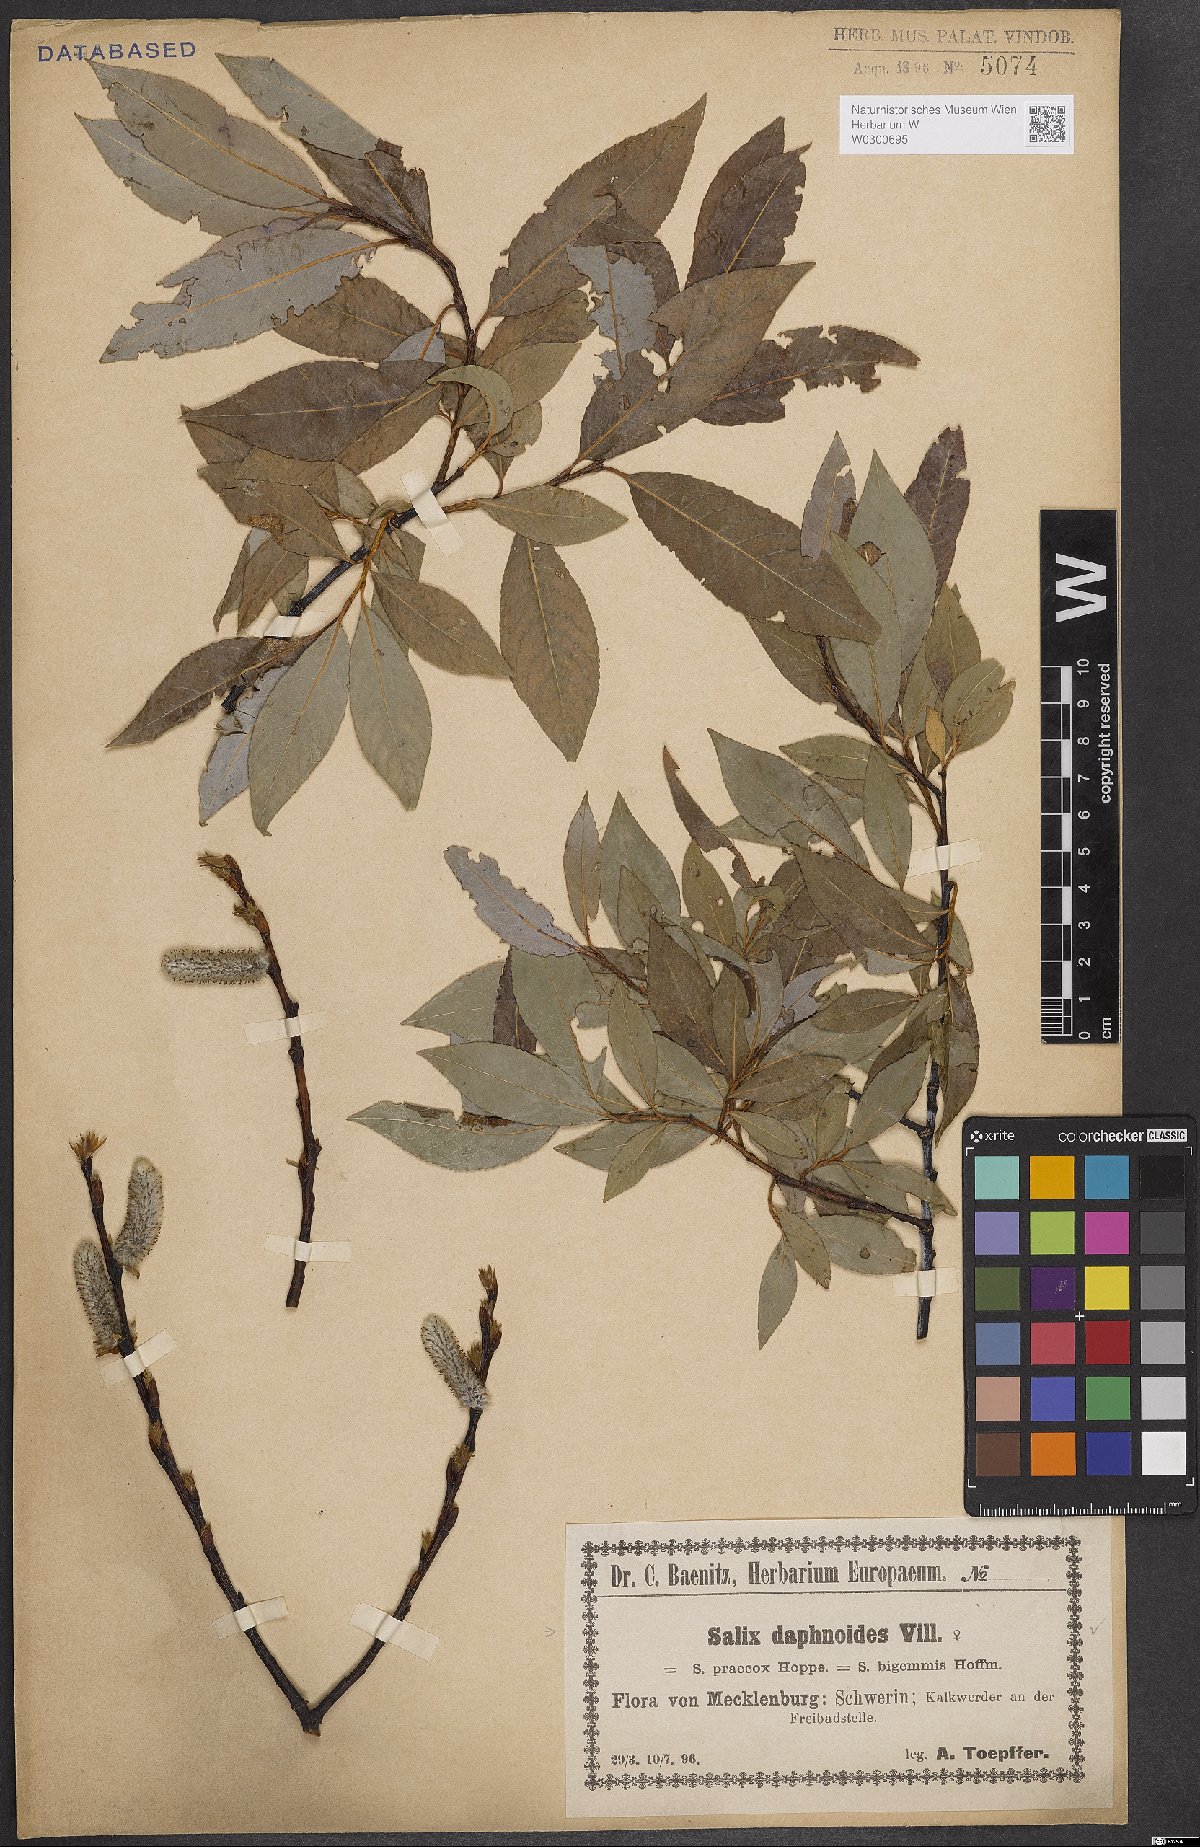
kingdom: Plantae
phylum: Tracheophyta
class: Magnoliopsida
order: Malpighiales
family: Salicaceae
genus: Salix
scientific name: Salix daphnoides
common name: European violet-willow
